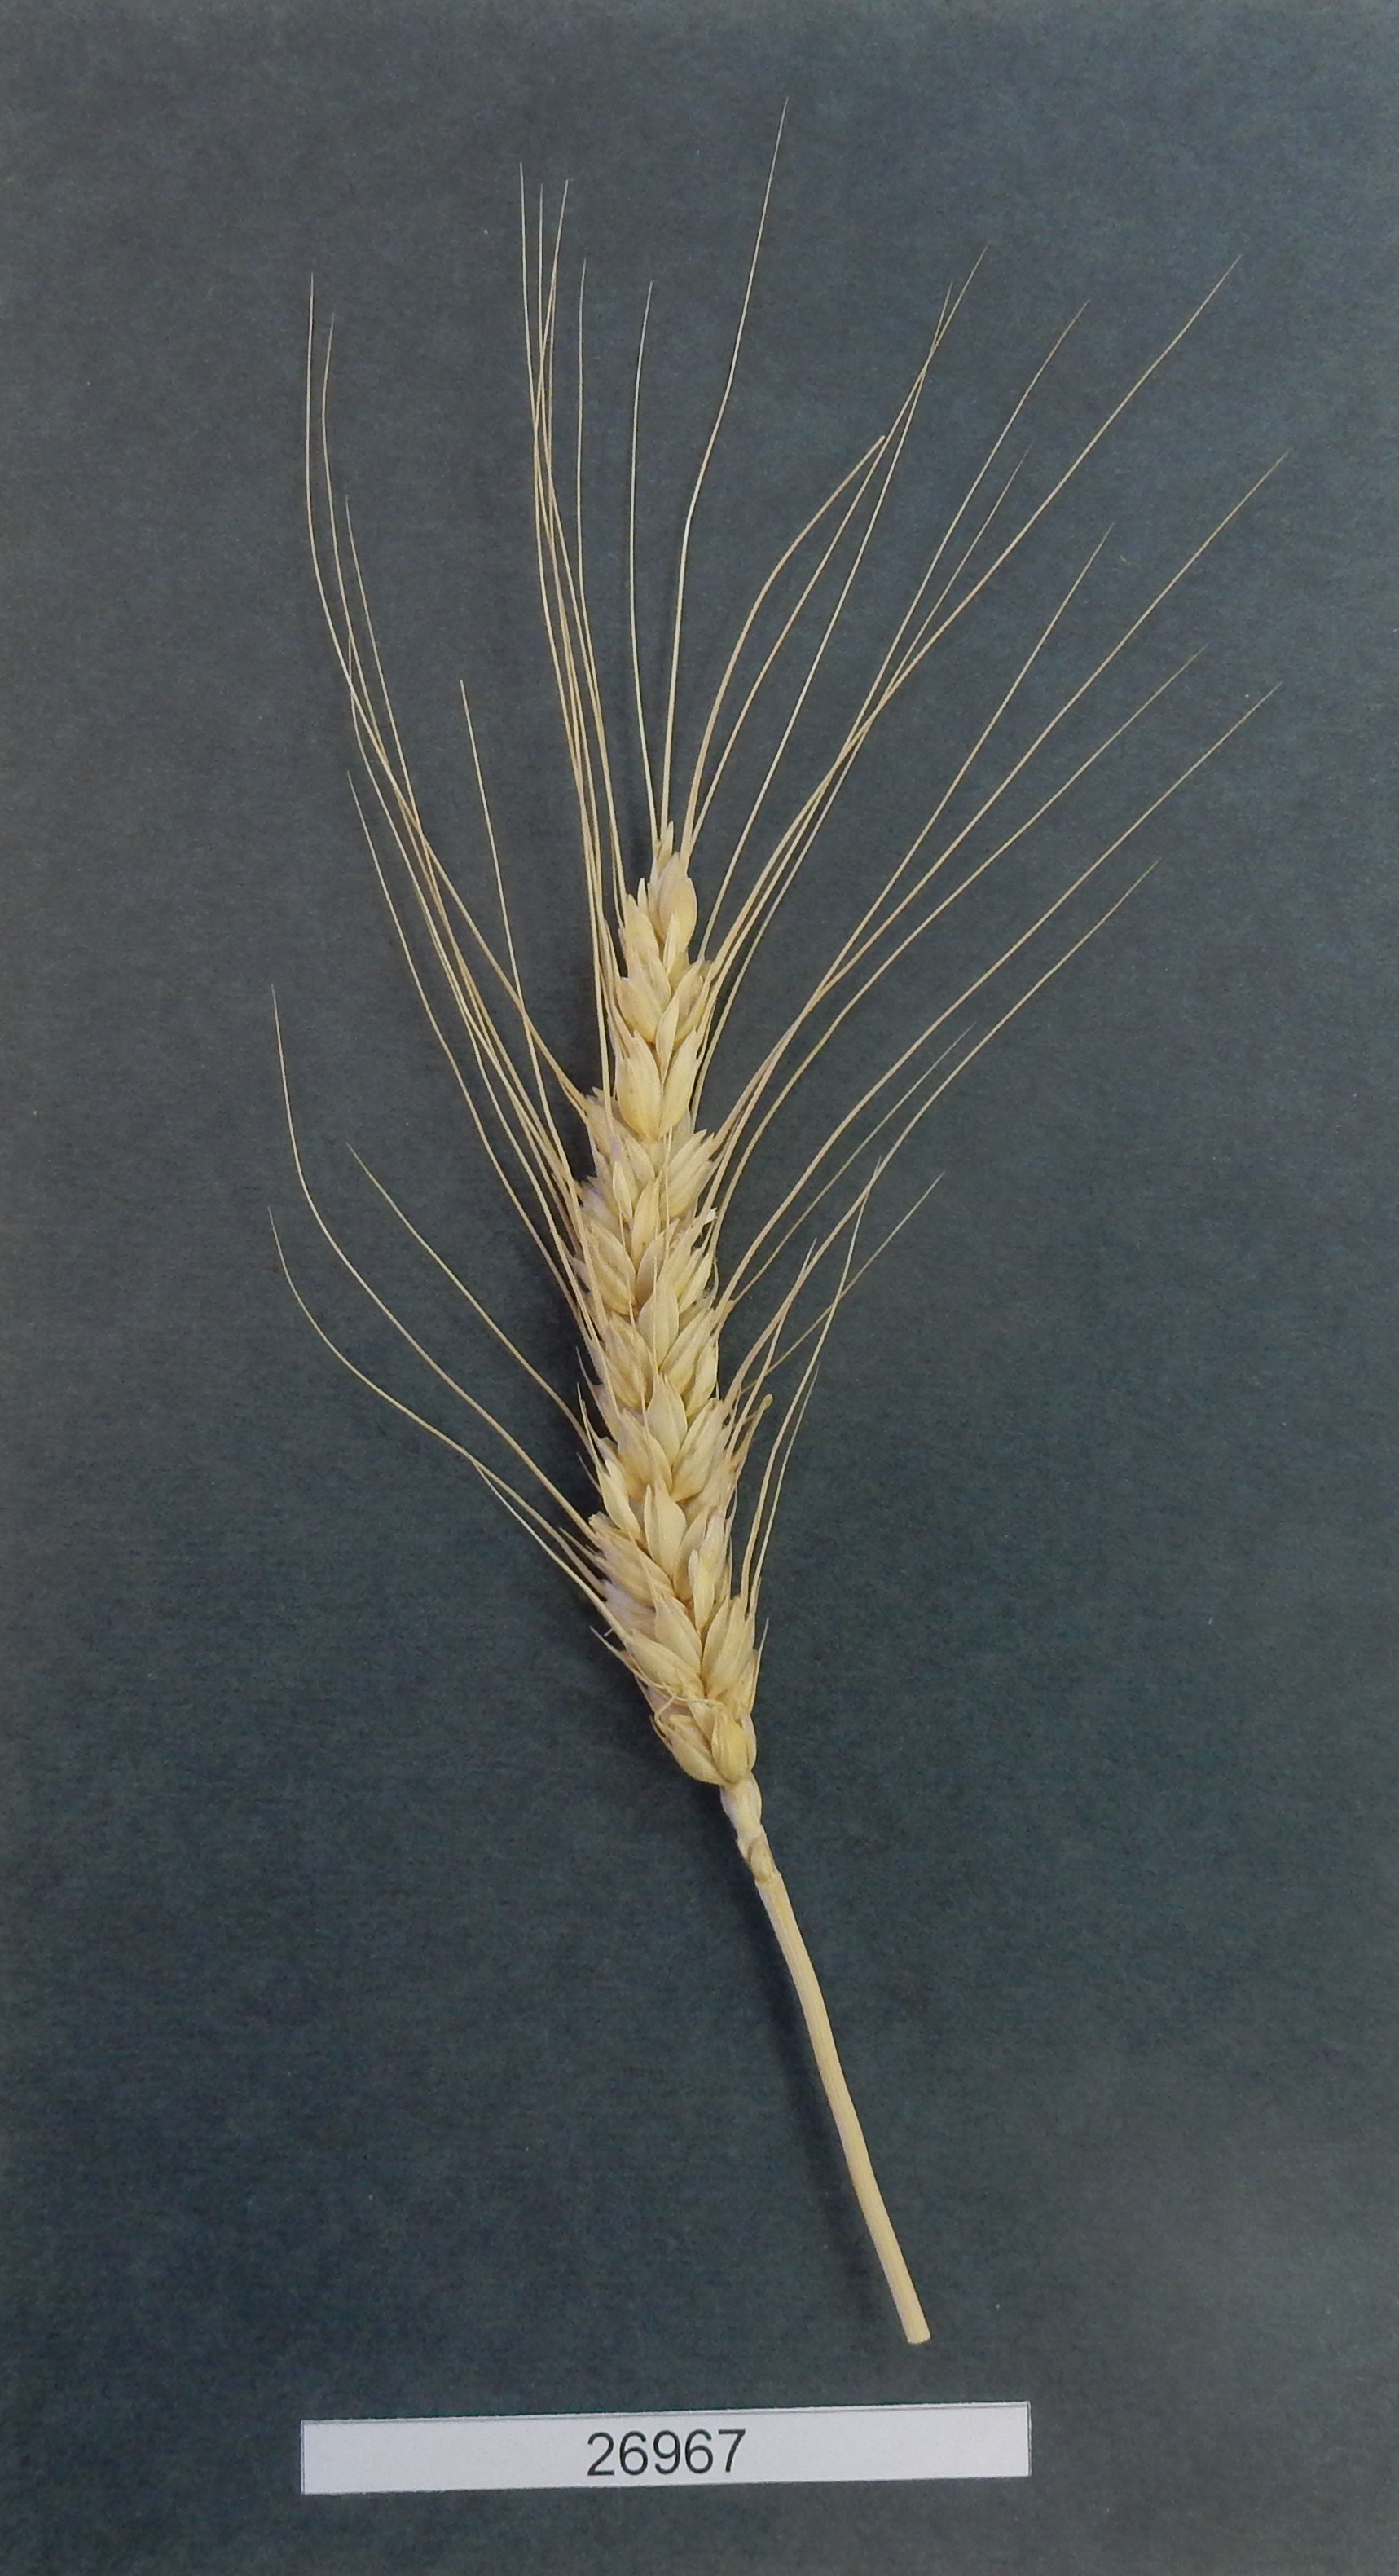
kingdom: Plantae
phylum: Tracheophyta
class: Liliopsida
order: Poales
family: Poaceae
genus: Triticum
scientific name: Triticum
